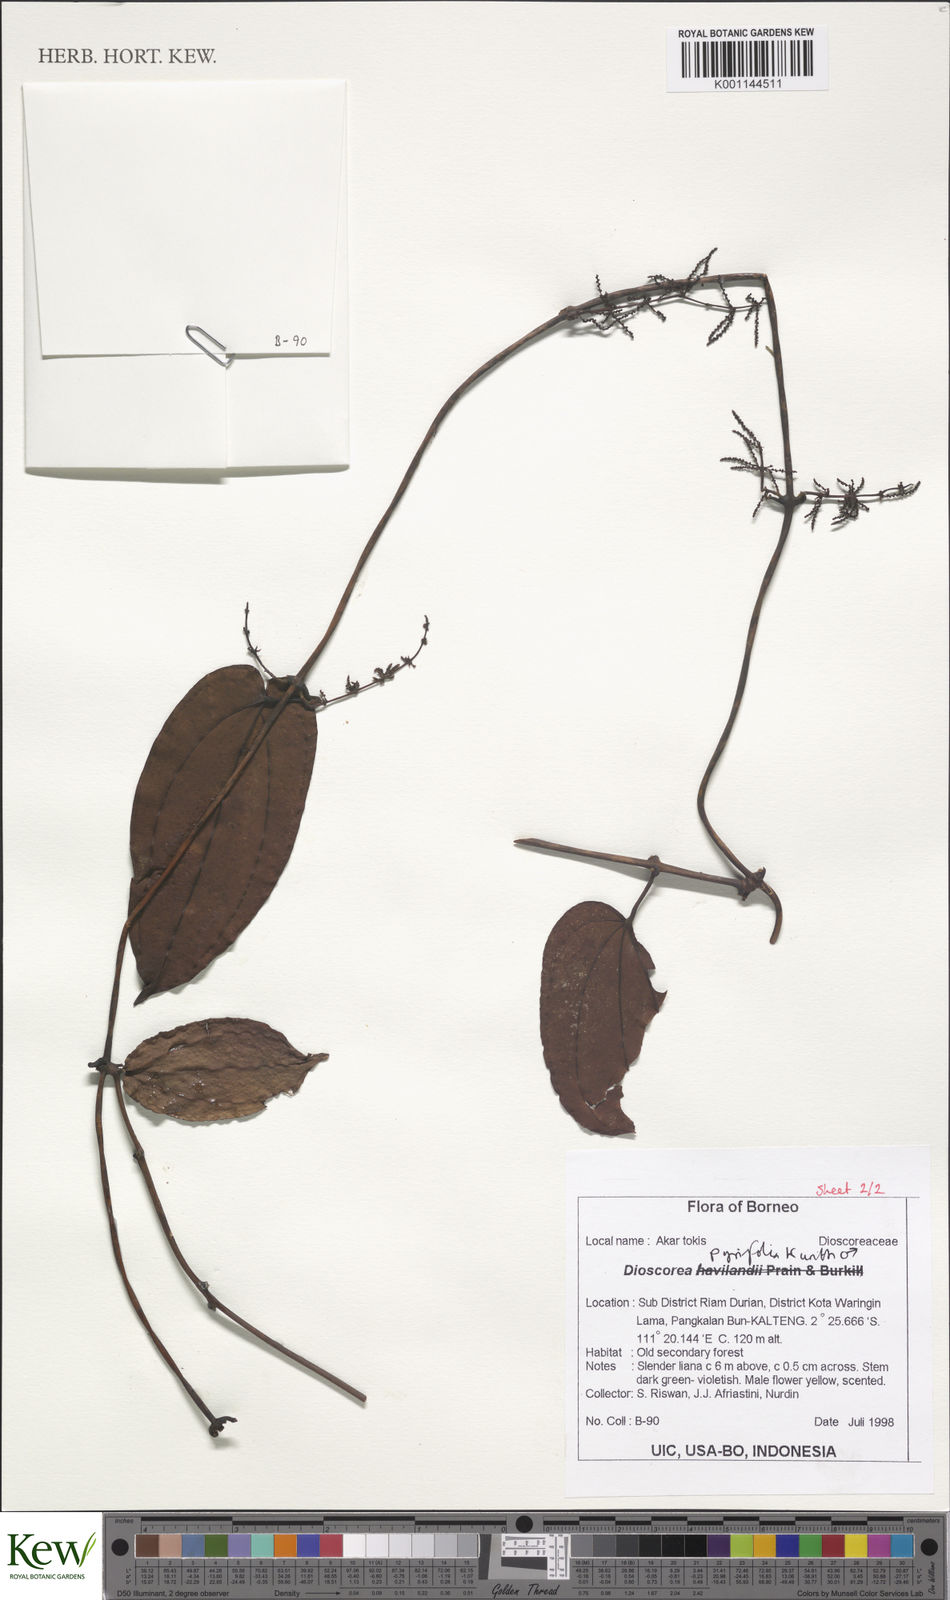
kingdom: Plantae
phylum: Tracheophyta
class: Liliopsida
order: Dioscoreales
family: Dioscoreaceae
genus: Dioscorea
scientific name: Dioscorea pyrifolia
